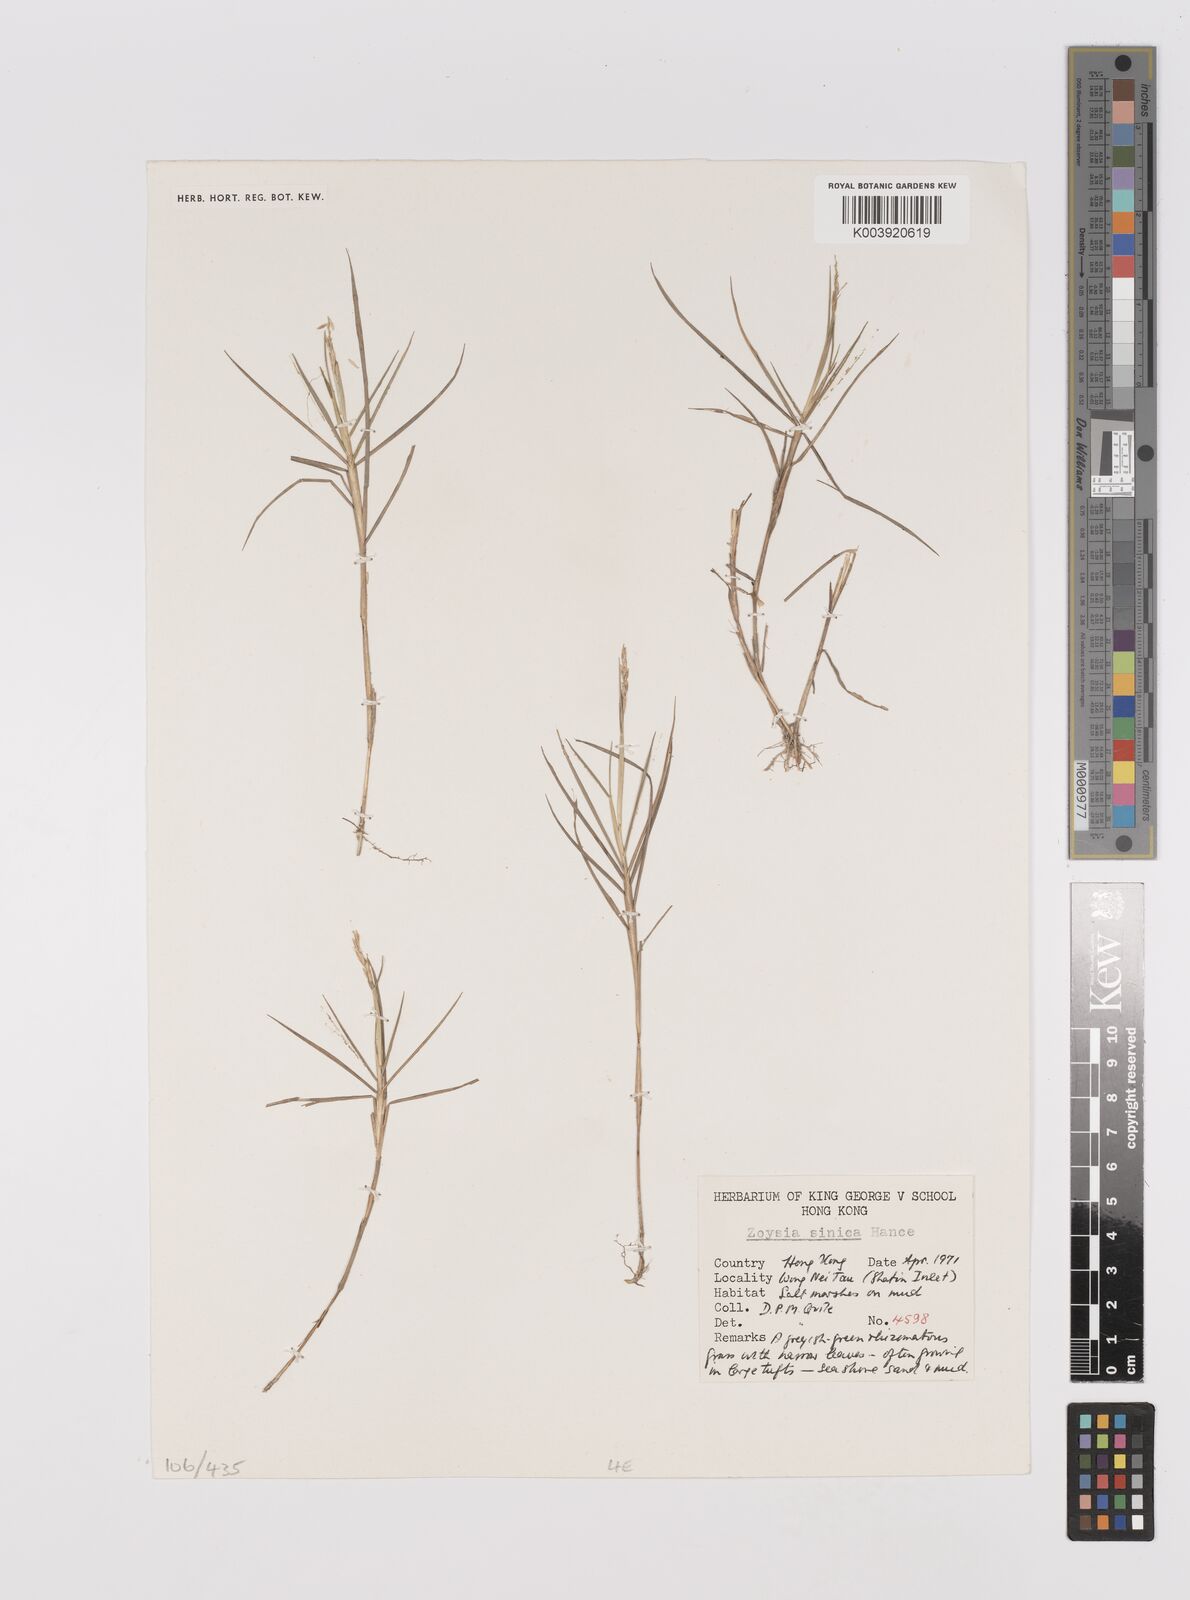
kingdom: Plantae
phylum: Tracheophyta
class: Liliopsida
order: Poales
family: Poaceae
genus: Zoysia
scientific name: Zoysia sinica
